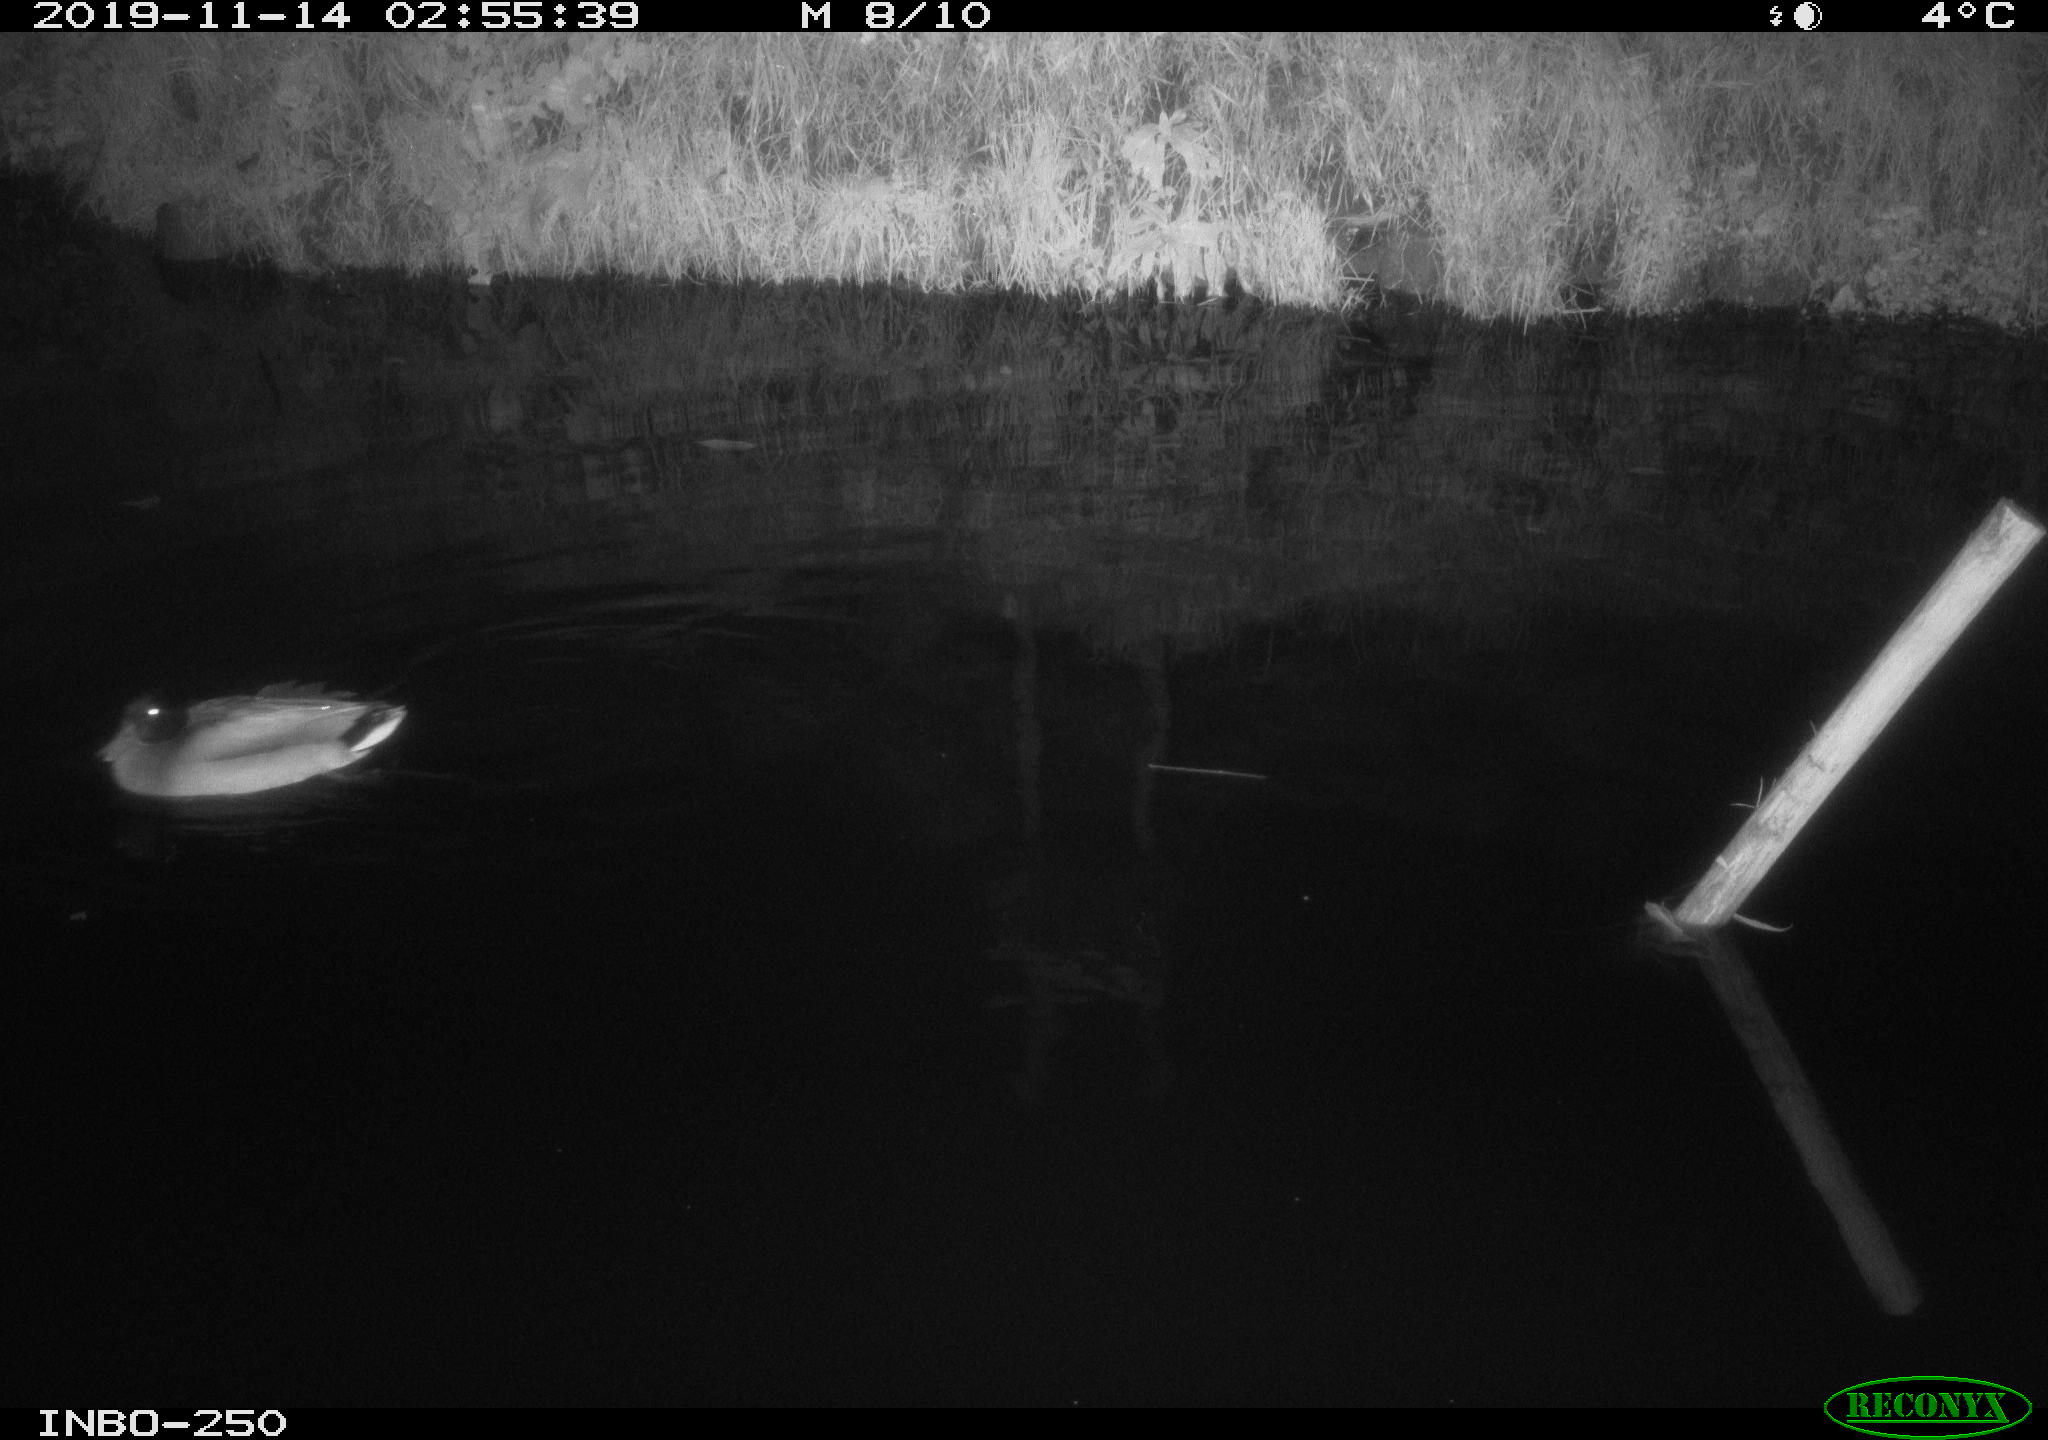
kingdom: Animalia
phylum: Chordata
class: Aves
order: Anseriformes
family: Anatidae
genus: Anas
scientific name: Anas platyrhynchos
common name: Mallard
